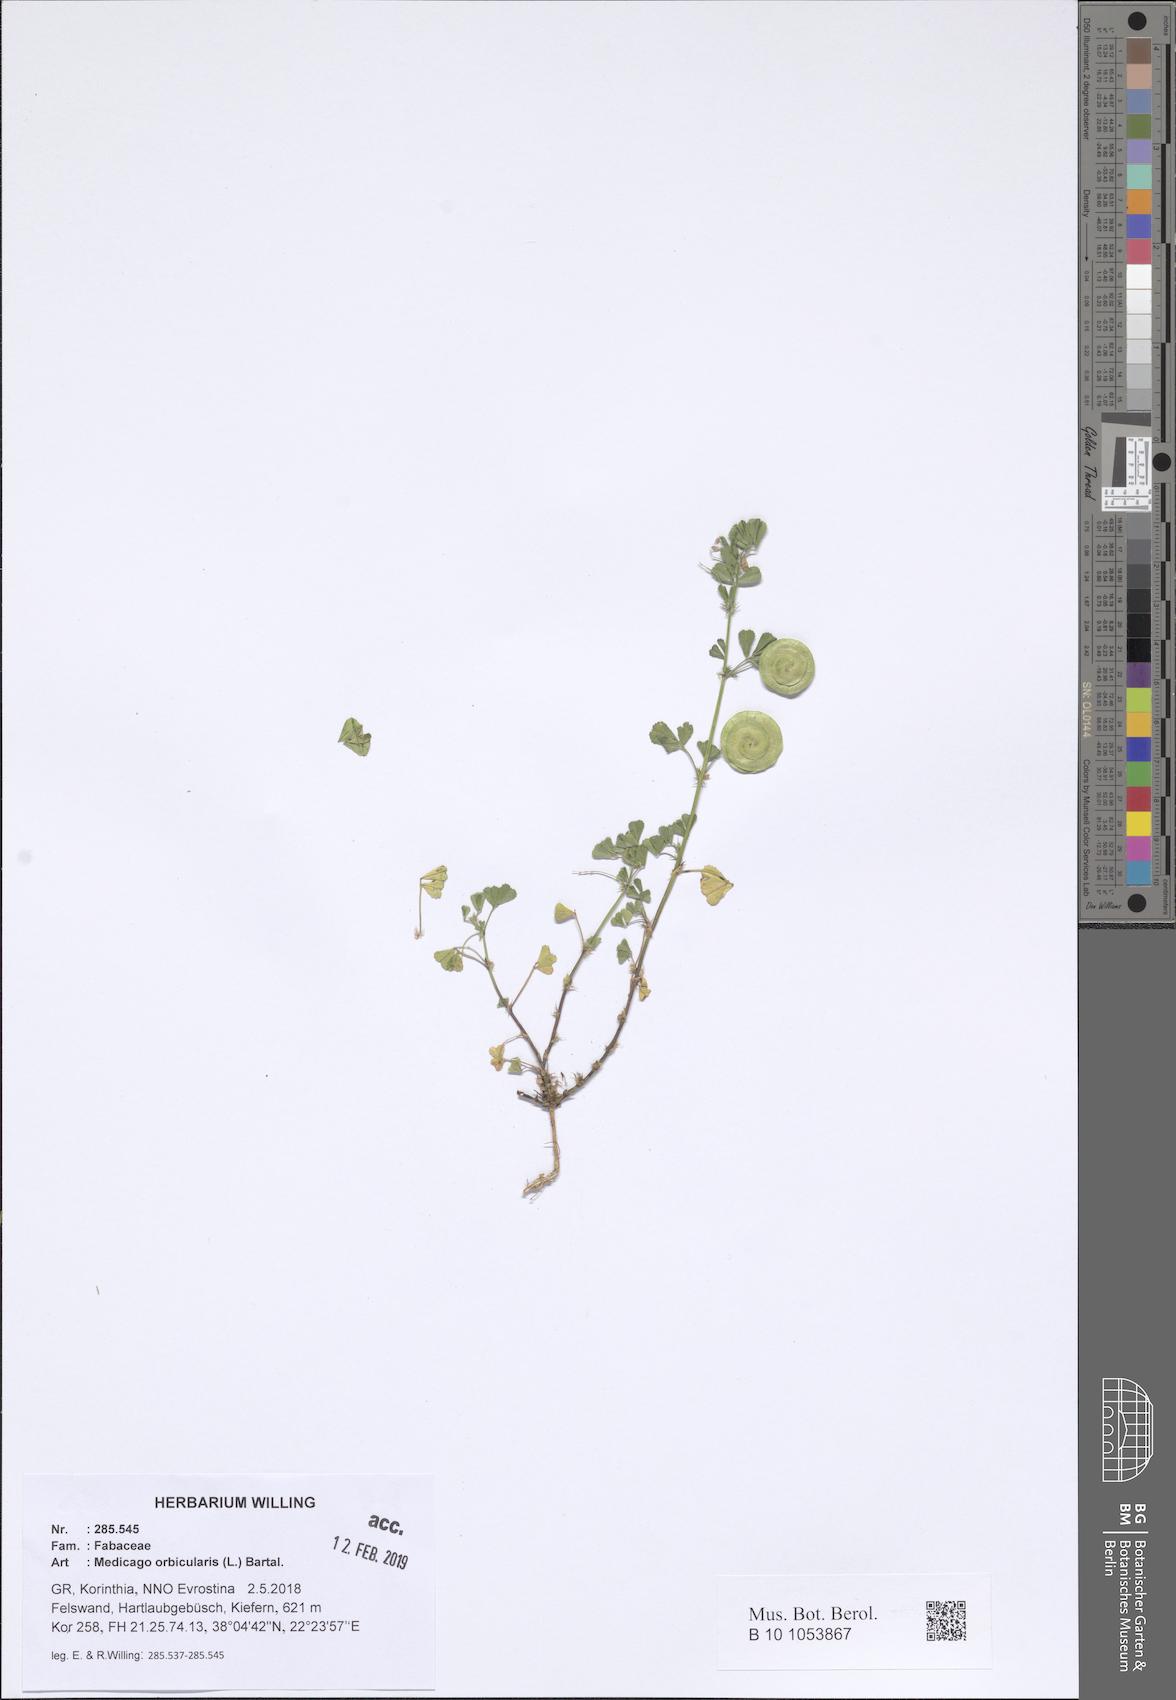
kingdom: Plantae
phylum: Tracheophyta
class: Magnoliopsida
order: Fabales
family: Fabaceae
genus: Medicago
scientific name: Medicago orbicularis
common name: Button medick
